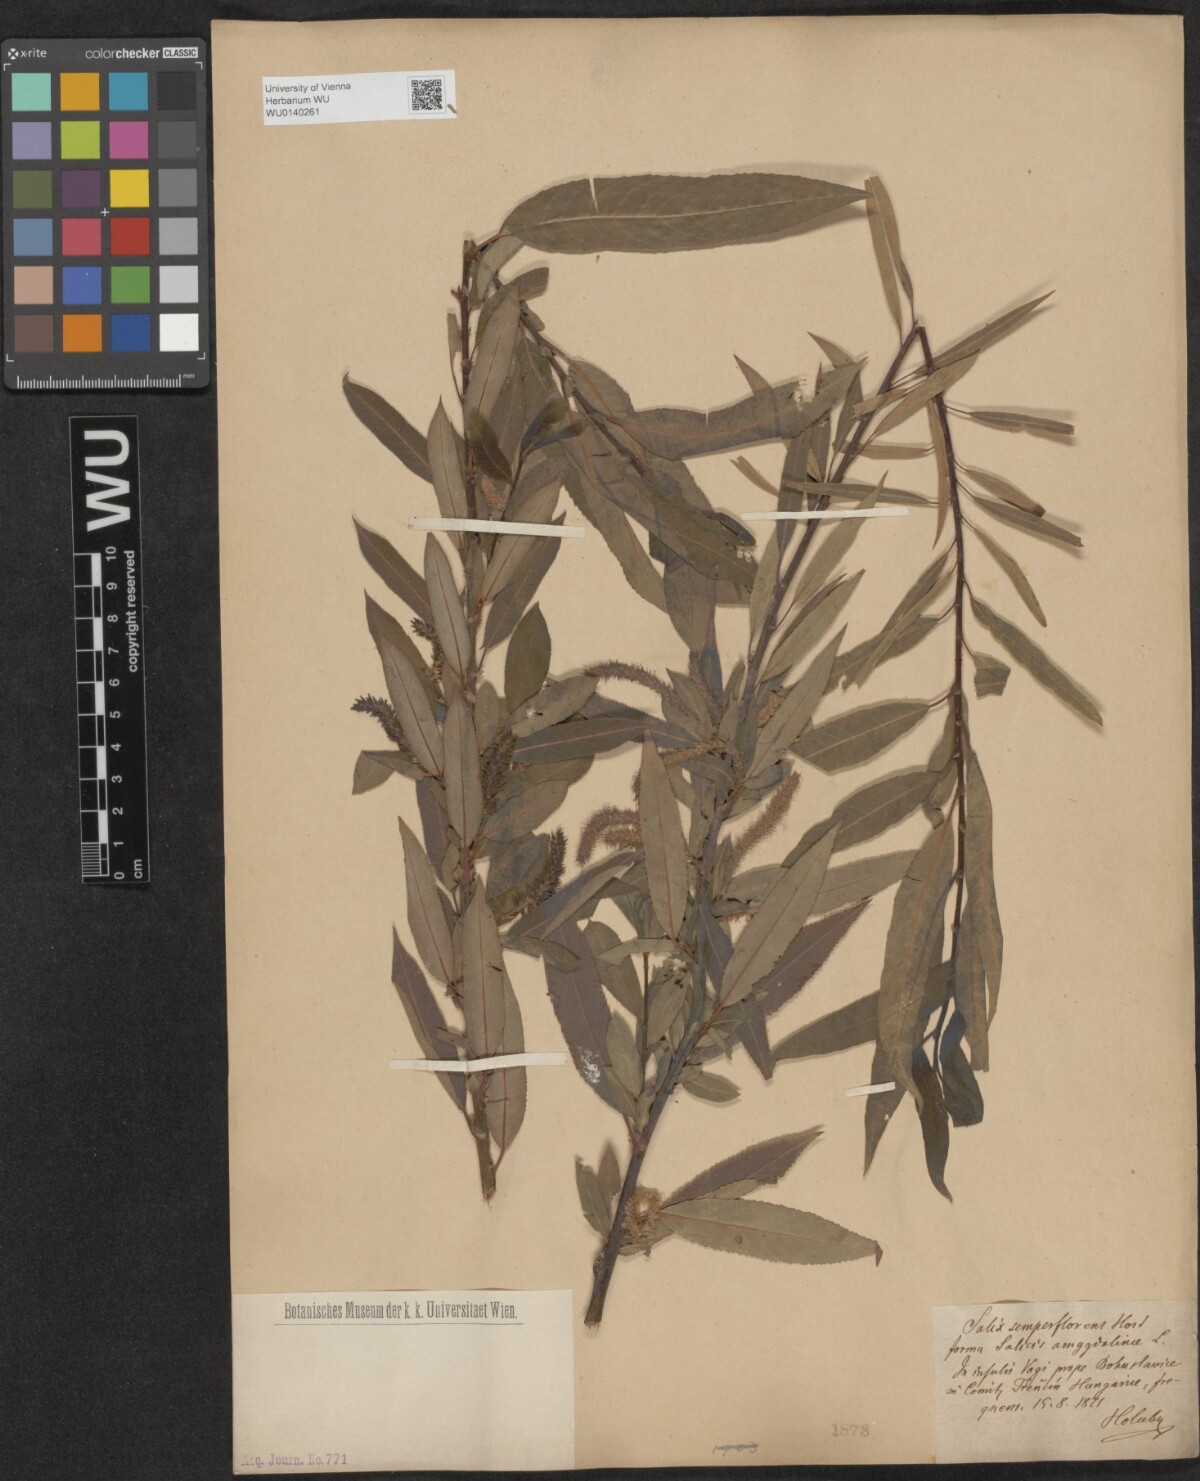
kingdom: Plantae
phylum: Tracheophyta
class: Magnoliopsida
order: Malpighiales
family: Salicaceae
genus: Salix
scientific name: Salix triandra
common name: Almond willow
